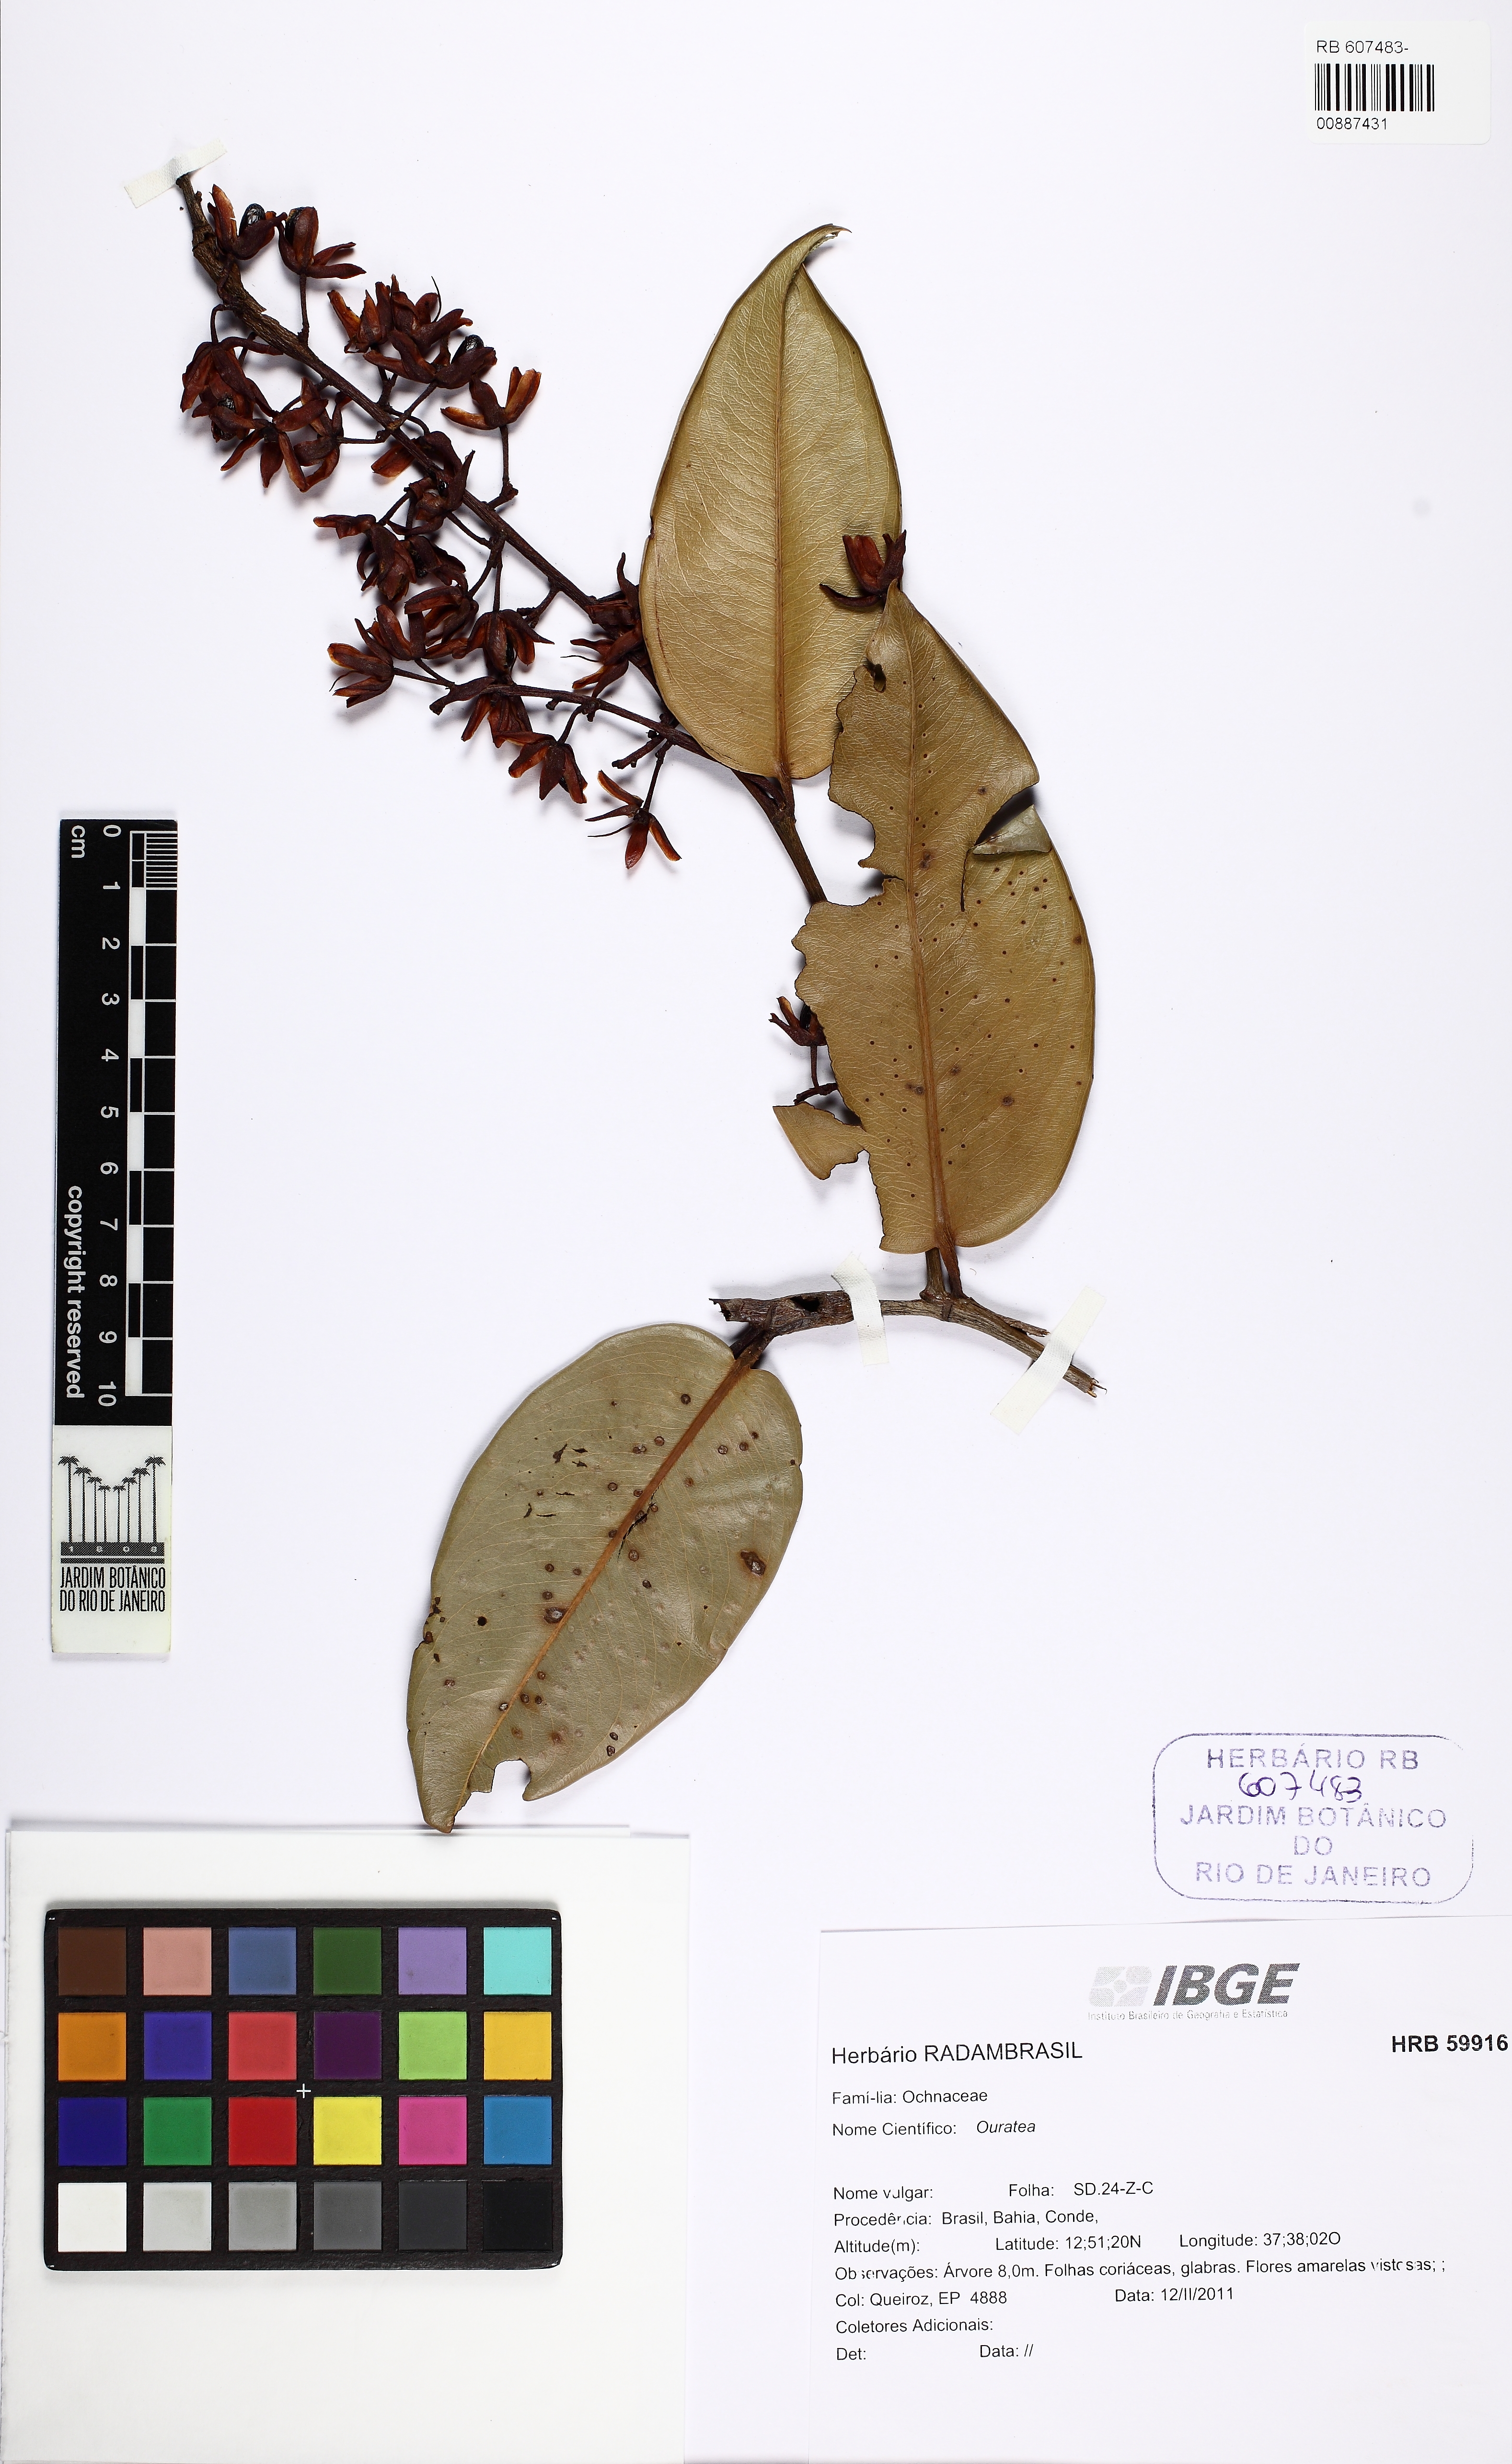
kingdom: Plantae
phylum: Tracheophyta
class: Magnoliopsida
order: Malpighiales
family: Ochnaceae
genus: Ouratea
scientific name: Ouratea
